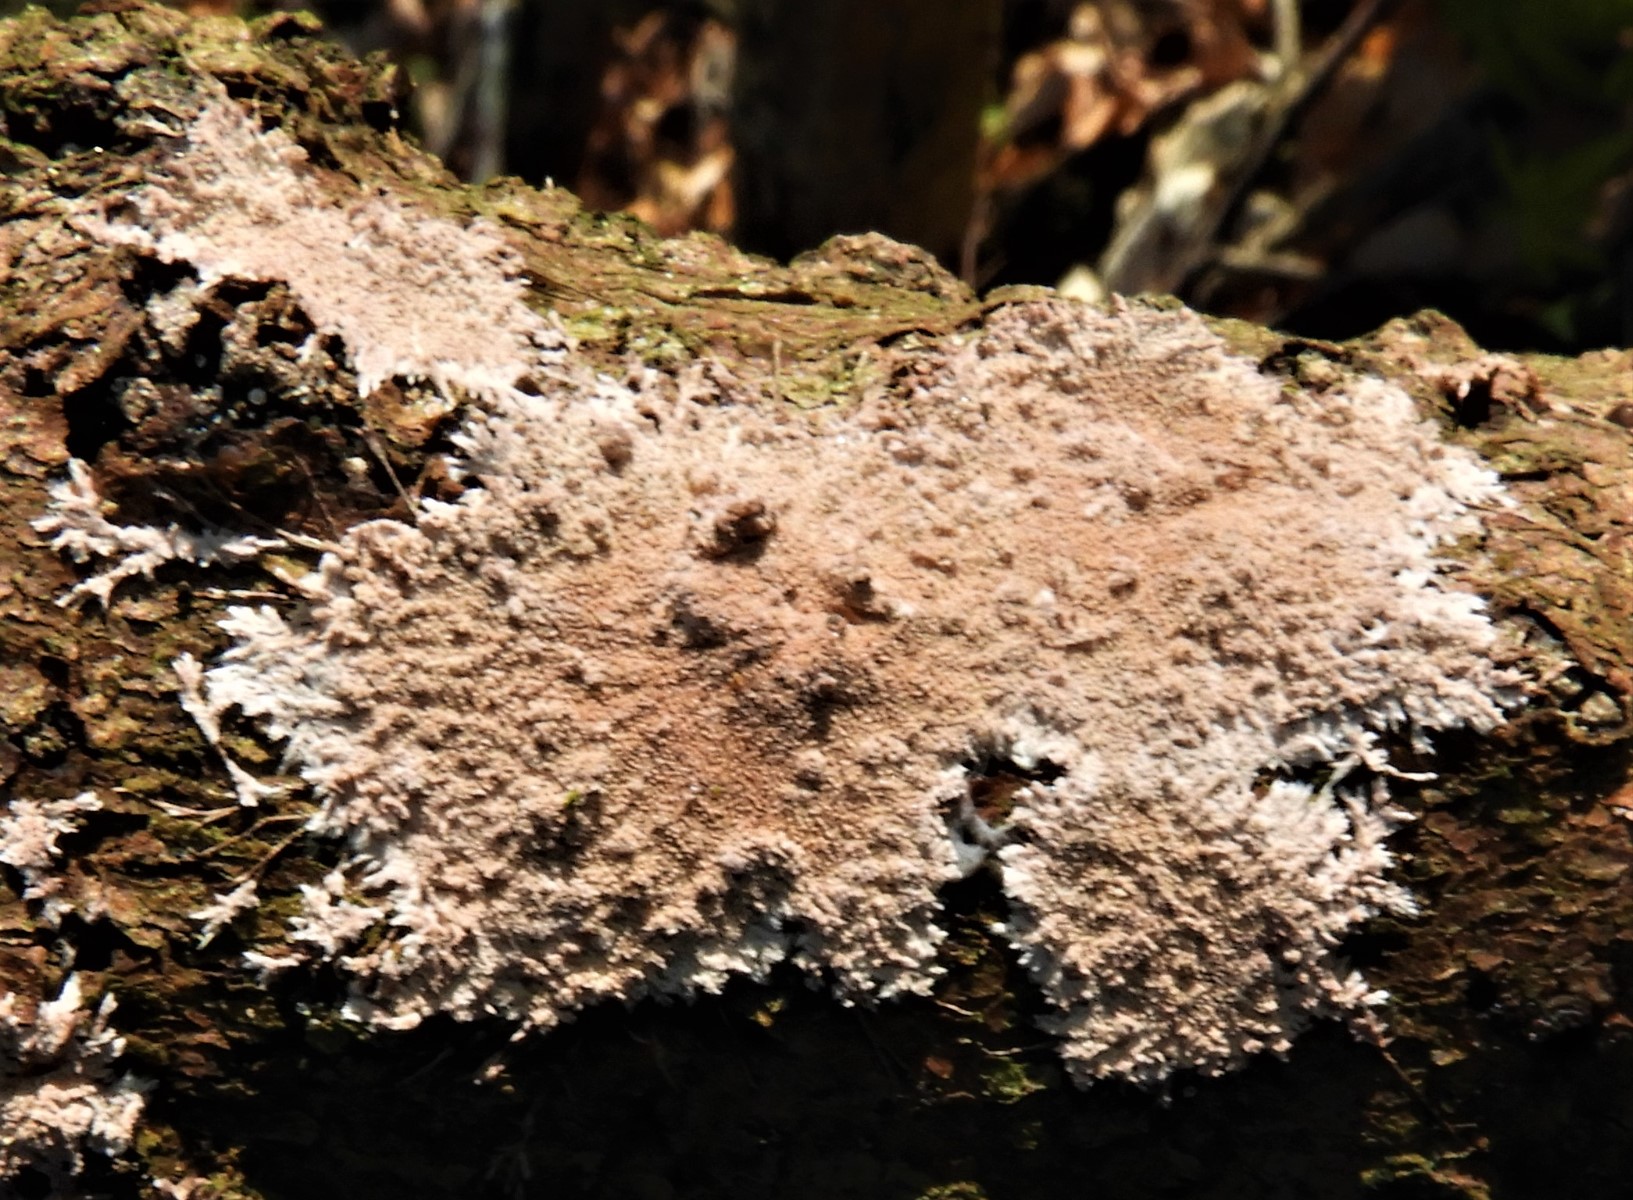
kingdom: Fungi
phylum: Basidiomycota
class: Agaricomycetes
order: Polyporales
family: Steccherinaceae
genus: Steccherinum
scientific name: Steccherinum fimbriatum
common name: trådet skønpig
